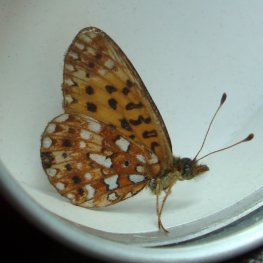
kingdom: Animalia
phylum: Arthropoda
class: Insecta
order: Lepidoptera
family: Nymphalidae
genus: Boloria
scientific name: Boloria selene
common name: Silver-bordered Fritillary
